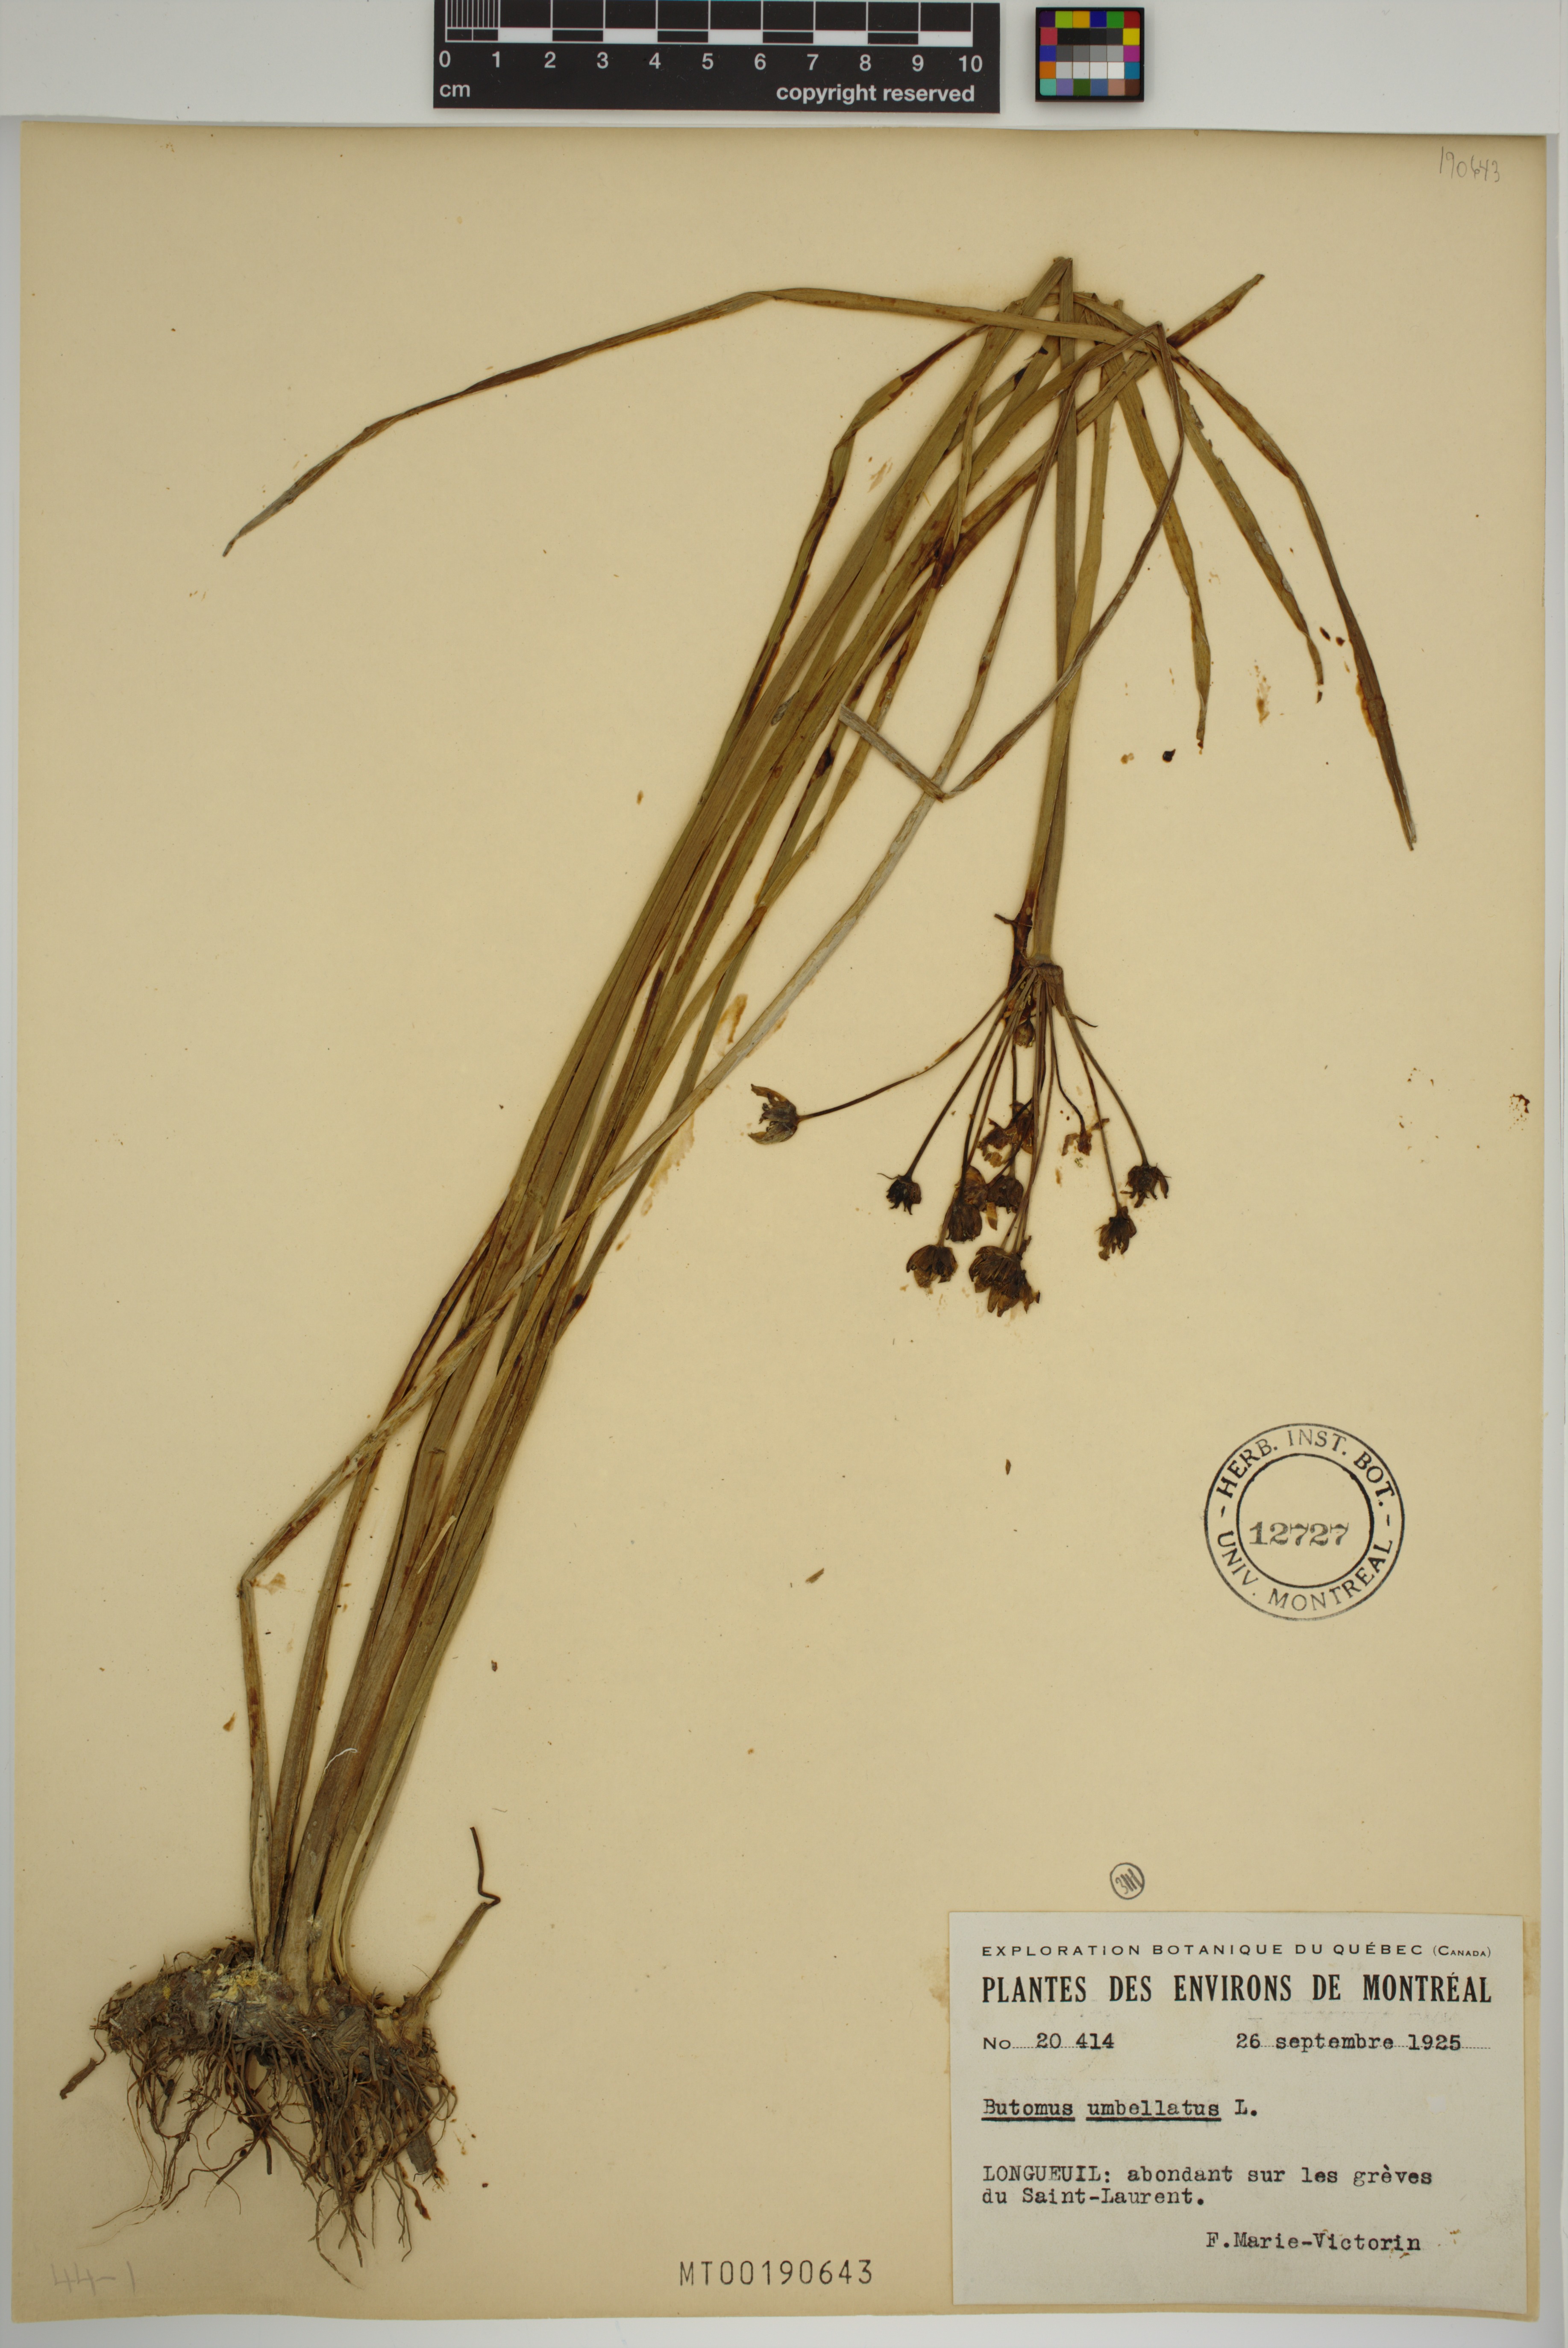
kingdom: Plantae
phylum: Tracheophyta
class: Liliopsida
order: Alismatales
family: Butomaceae
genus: Butomus
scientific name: Butomus umbellatus
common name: Flowering-rush
